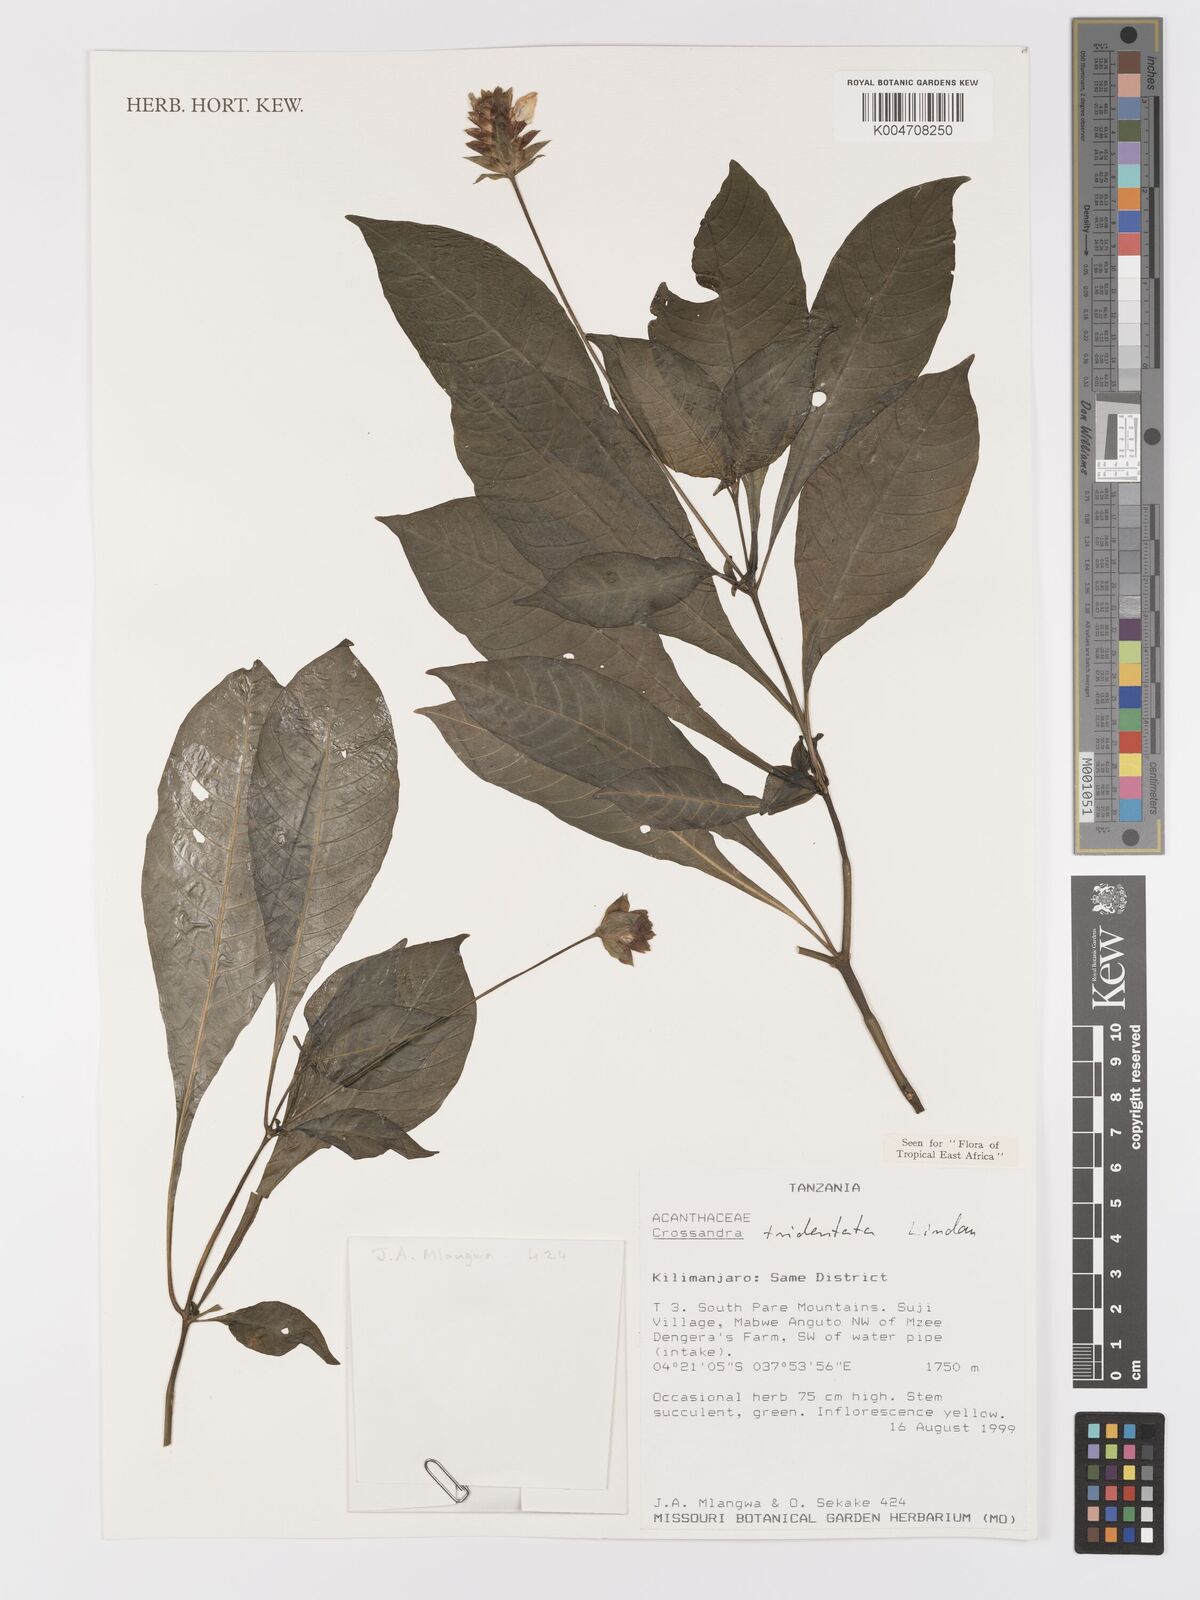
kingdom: Plantae
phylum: Tracheophyta
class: Magnoliopsida
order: Lamiales
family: Acanthaceae
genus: Crossandra
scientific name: Crossandra tridentata
